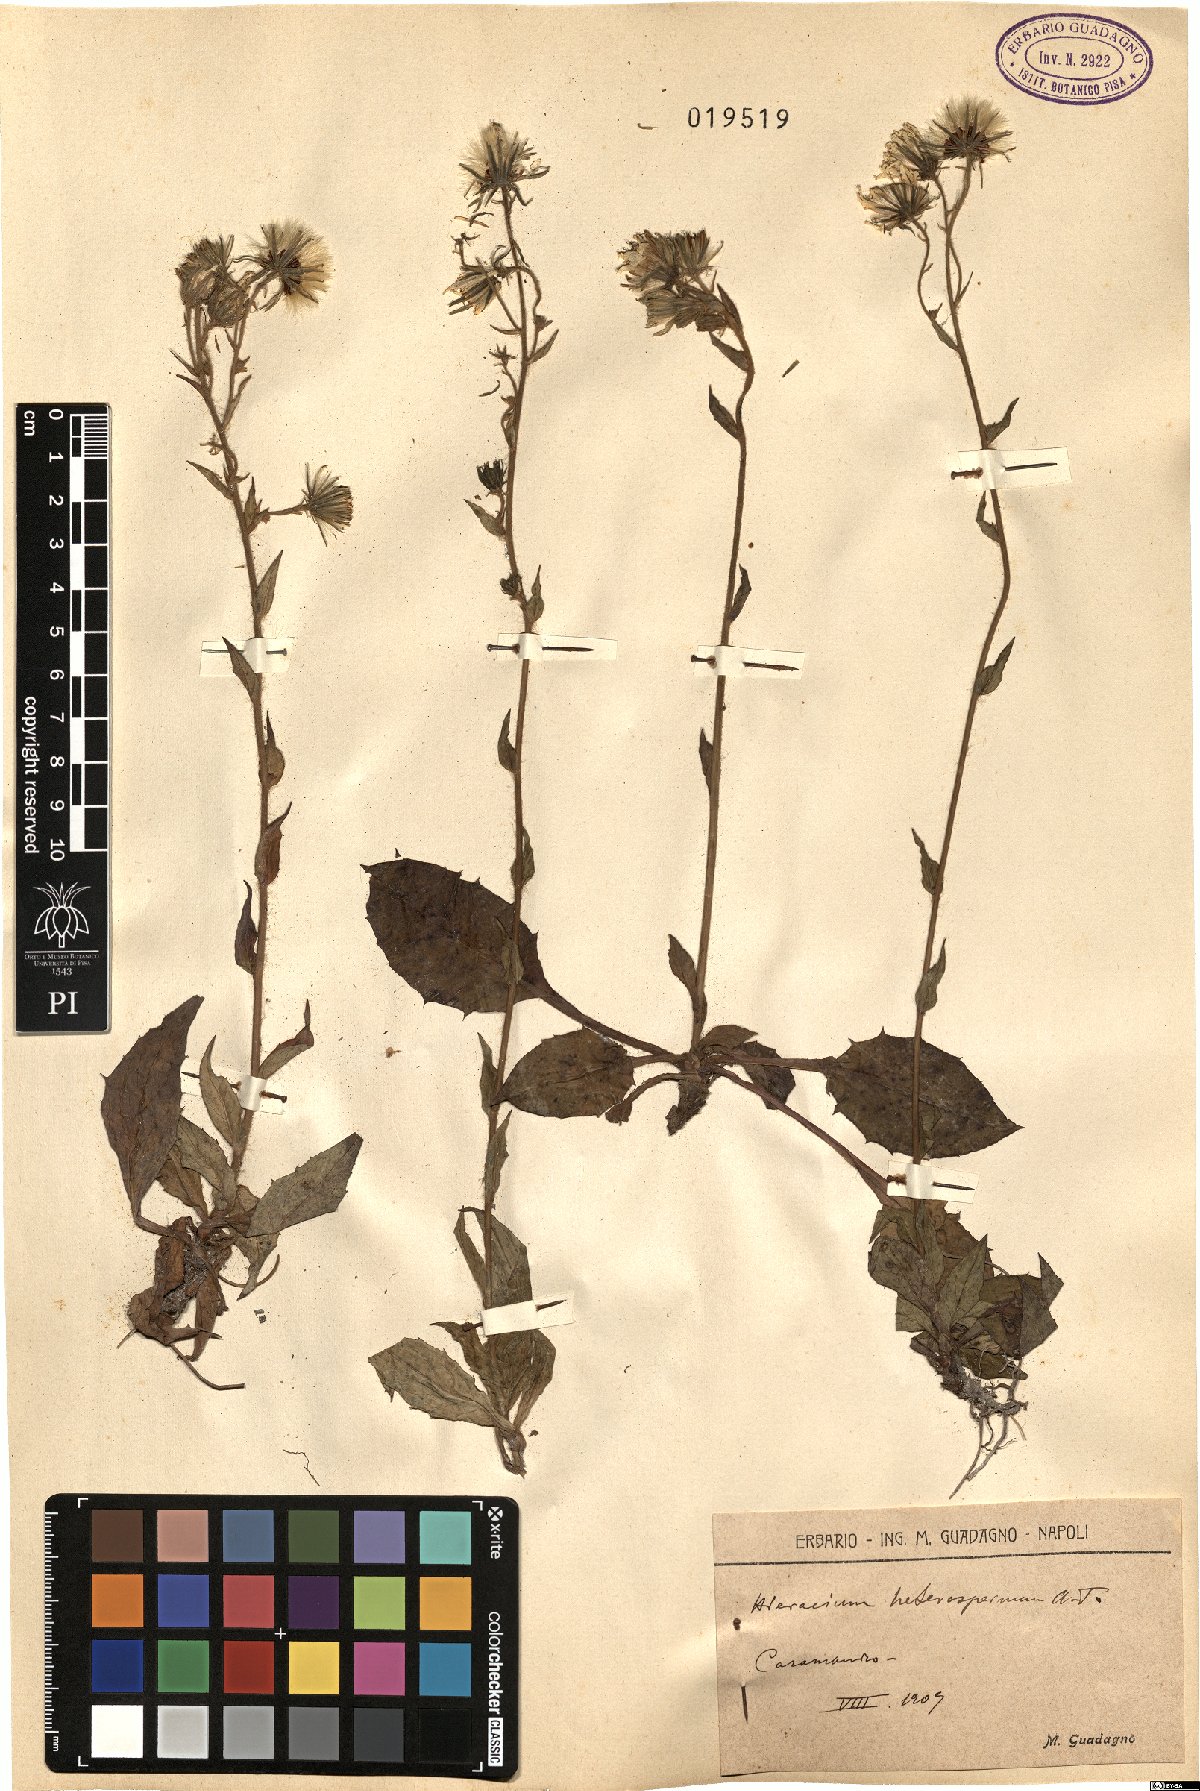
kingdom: Plantae
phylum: Tracheophyta
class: Magnoliopsida
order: Asterales
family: Asteraceae
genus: Hieracium
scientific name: Hieracium racemosum
